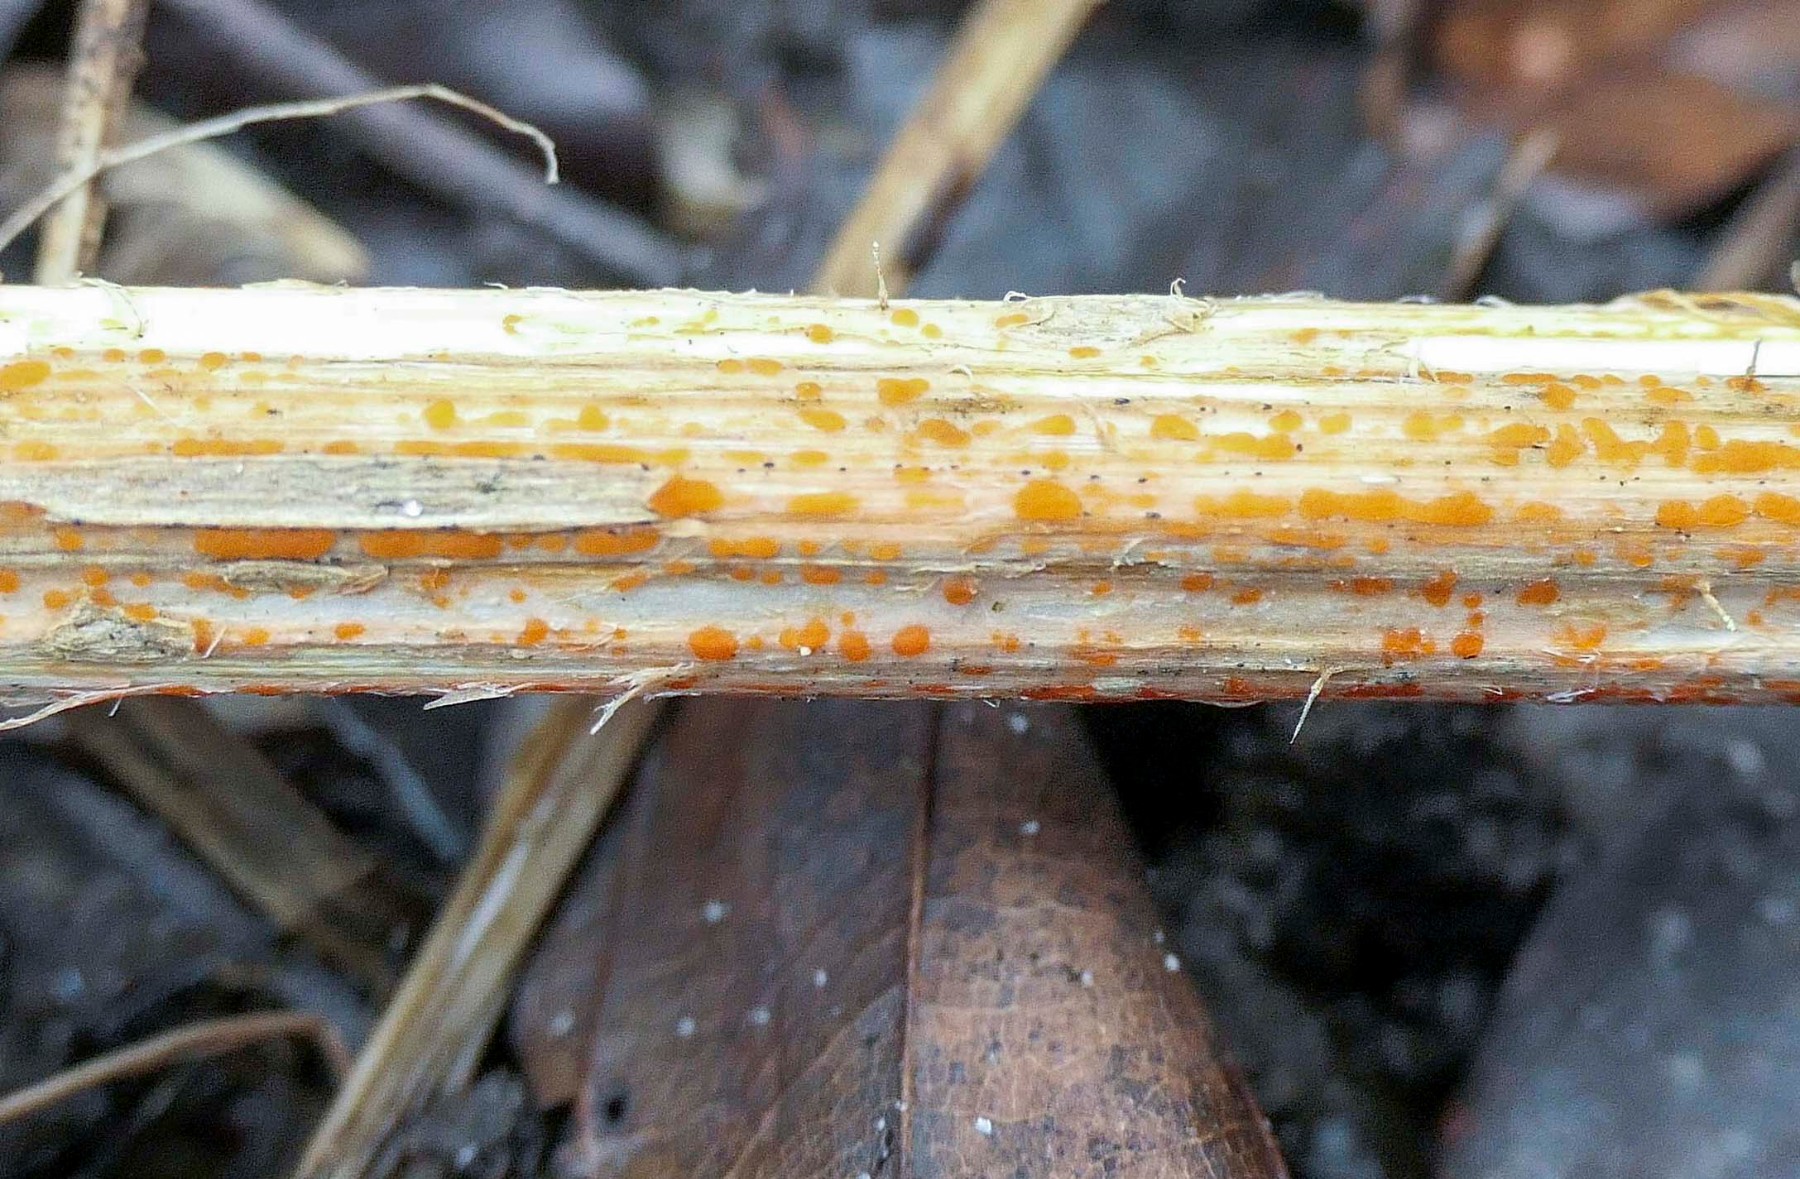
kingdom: Fungi
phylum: Ascomycota
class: Leotiomycetes
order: Helotiales
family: Calloriaceae
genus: Calloria
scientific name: Calloria urticae
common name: nælde-orangeskive
